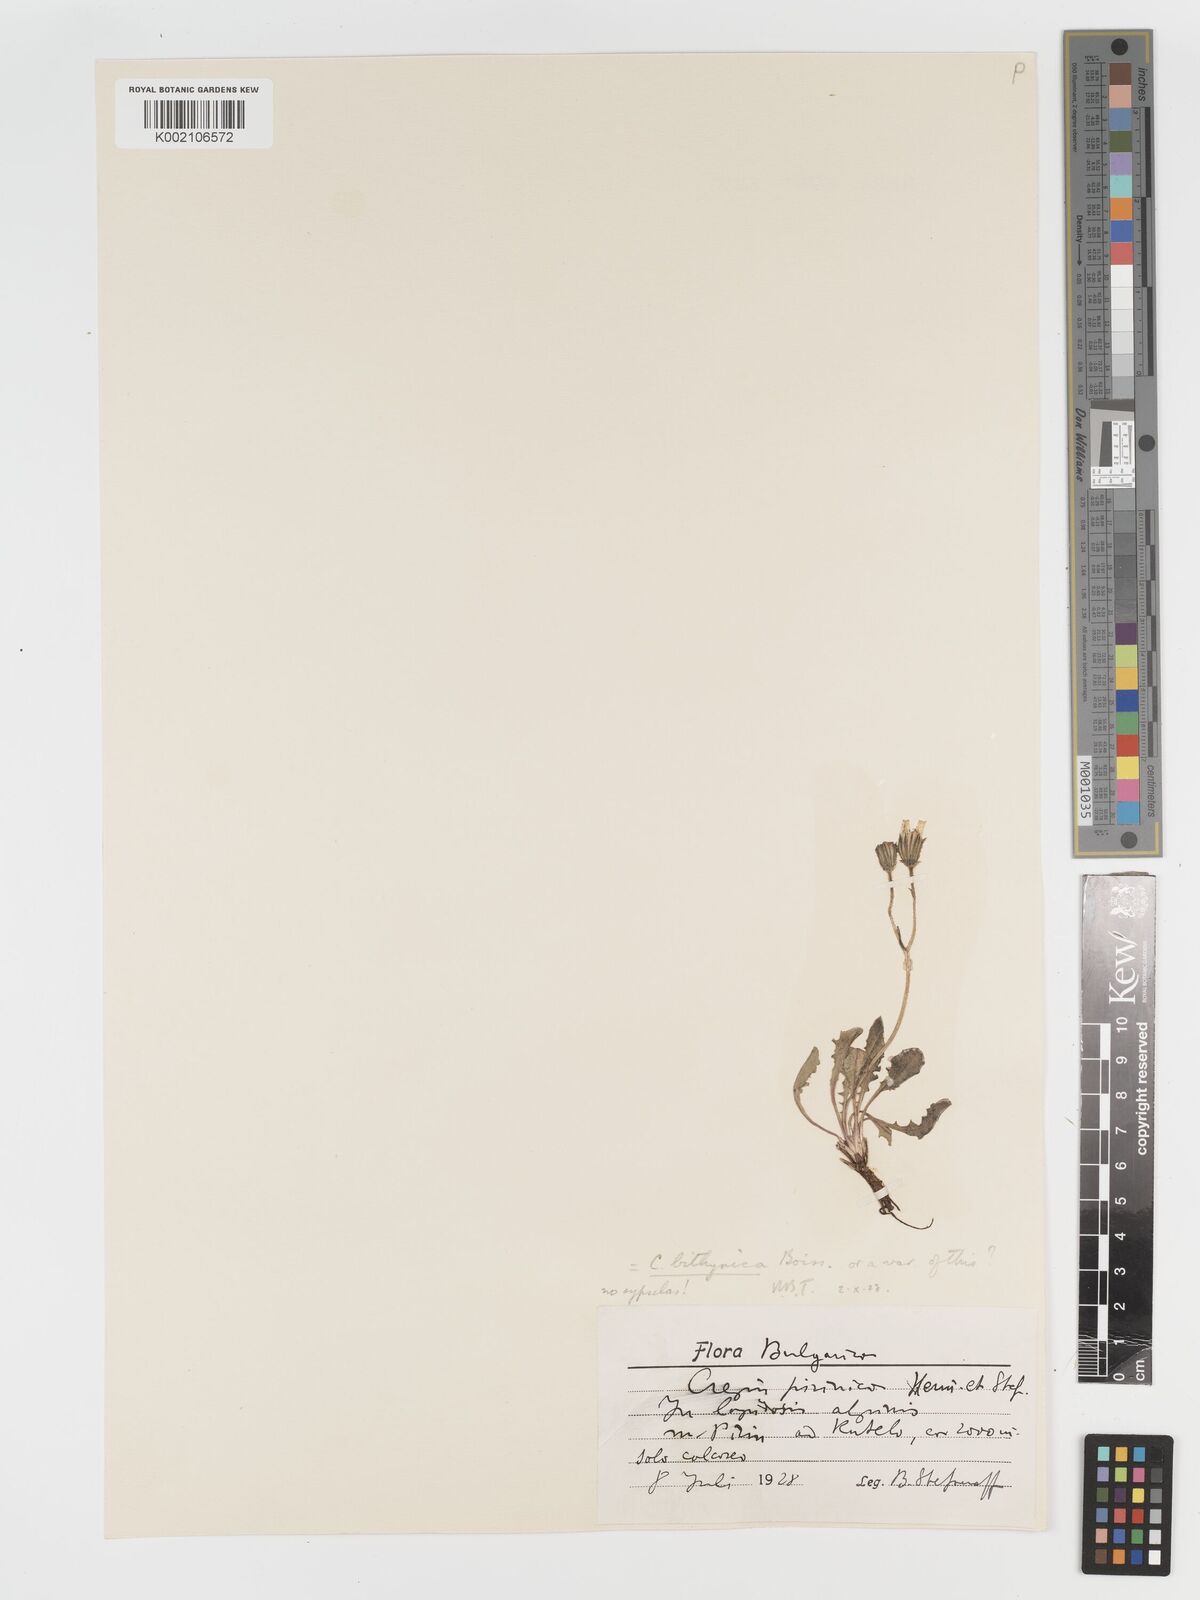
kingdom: Plantae
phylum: Tracheophyta
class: Magnoliopsida
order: Asterales
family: Asteraceae
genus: Crepis
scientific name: Crepis
